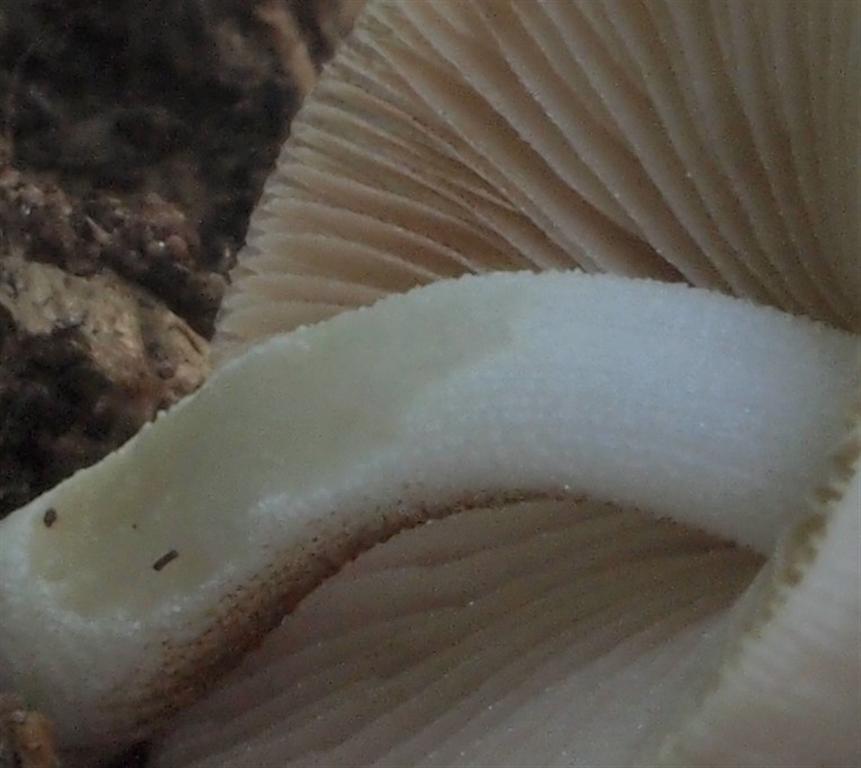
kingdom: Fungi
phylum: Basidiomycota
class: Agaricomycetes
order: Agaricales
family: Bolbitiaceae
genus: Bolbitius
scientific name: Bolbitius reticulatus
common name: Netted fieldcap
